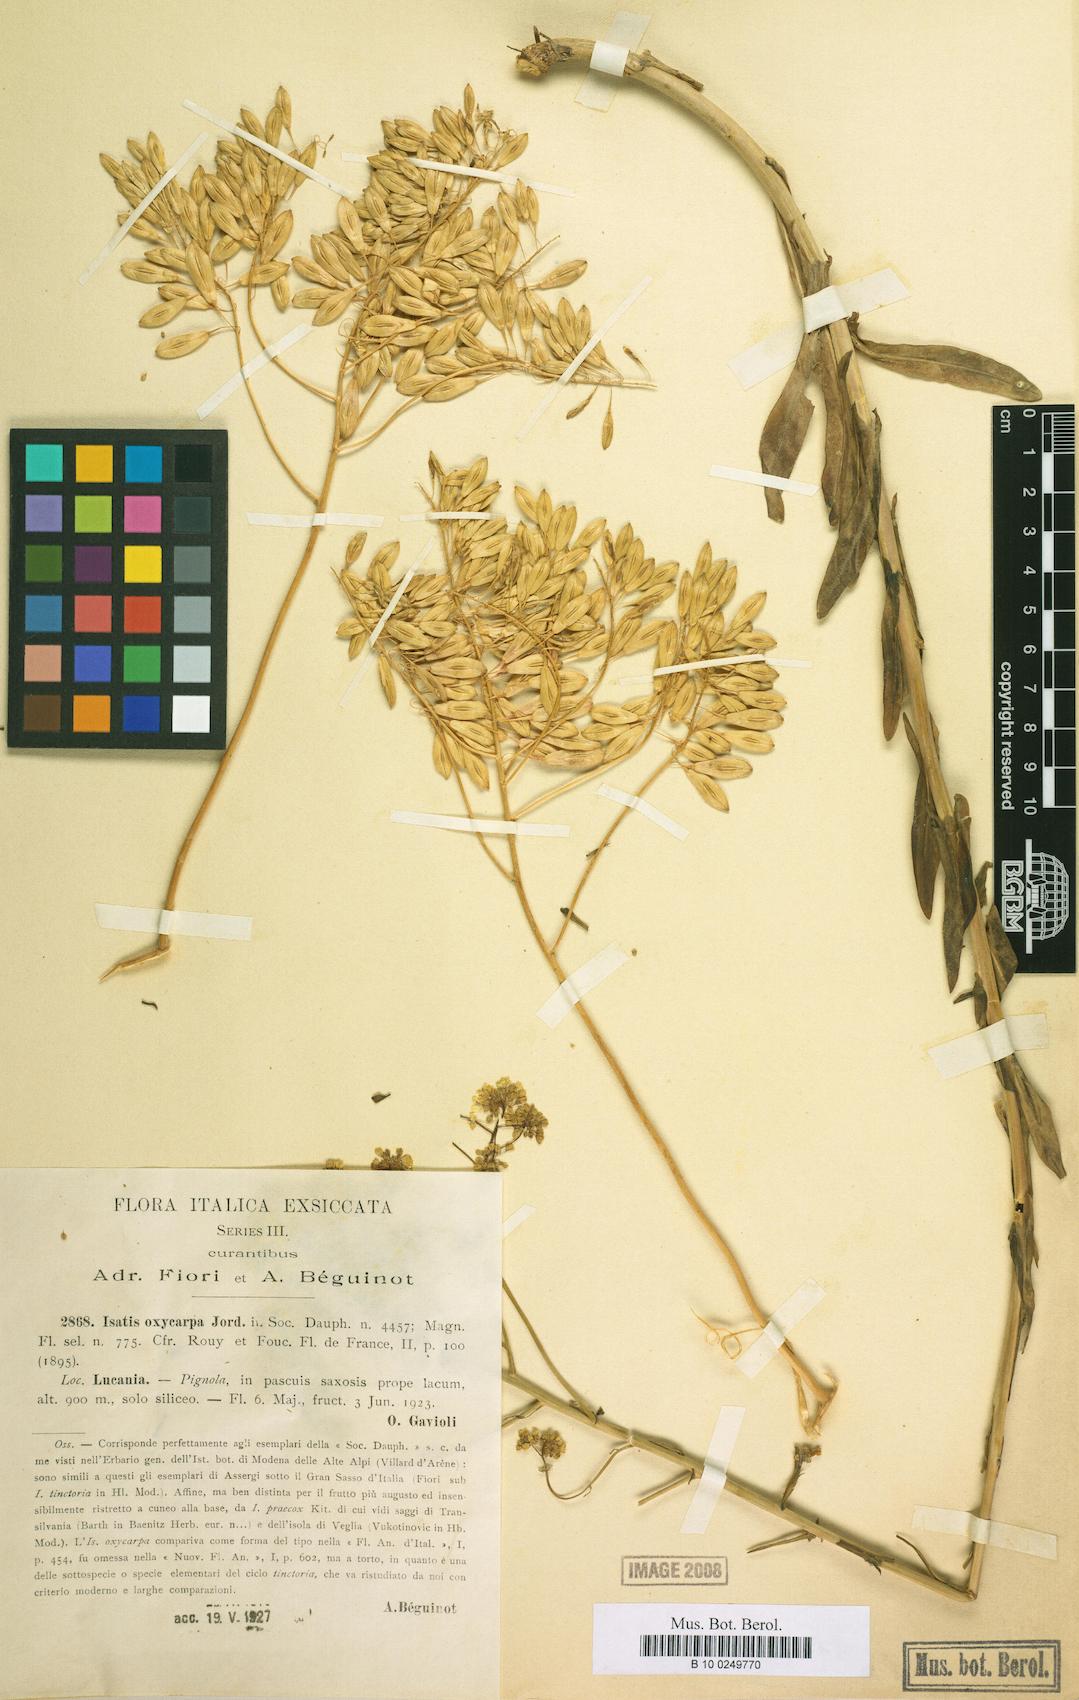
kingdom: Plantae
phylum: Tracheophyta
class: Magnoliopsida
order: Brassicales
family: Brassicaceae
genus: Isatis
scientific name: Isatis tinctoria
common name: Woad
